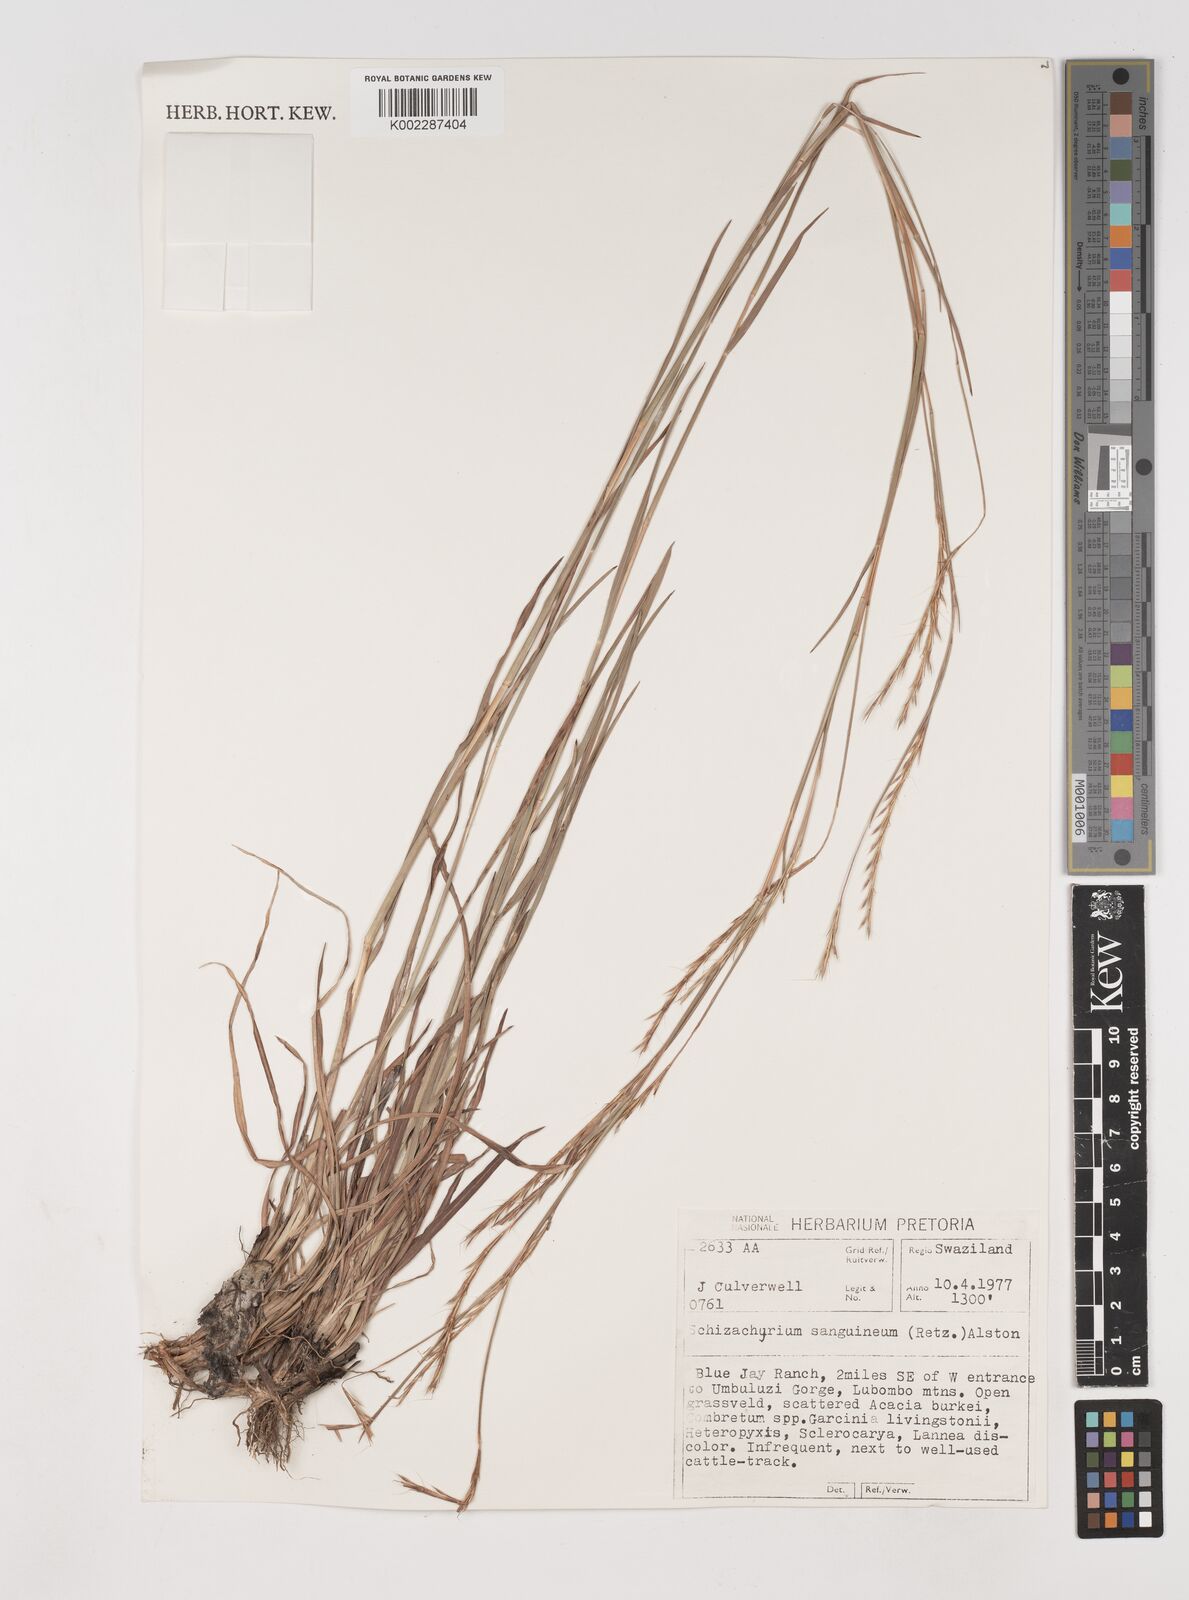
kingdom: Plantae
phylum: Tracheophyta
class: Liliopsida
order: Poales
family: Poaceae
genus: Schizachyrium
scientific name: Schizachyrium sanguineum
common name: Crimson bluestem
